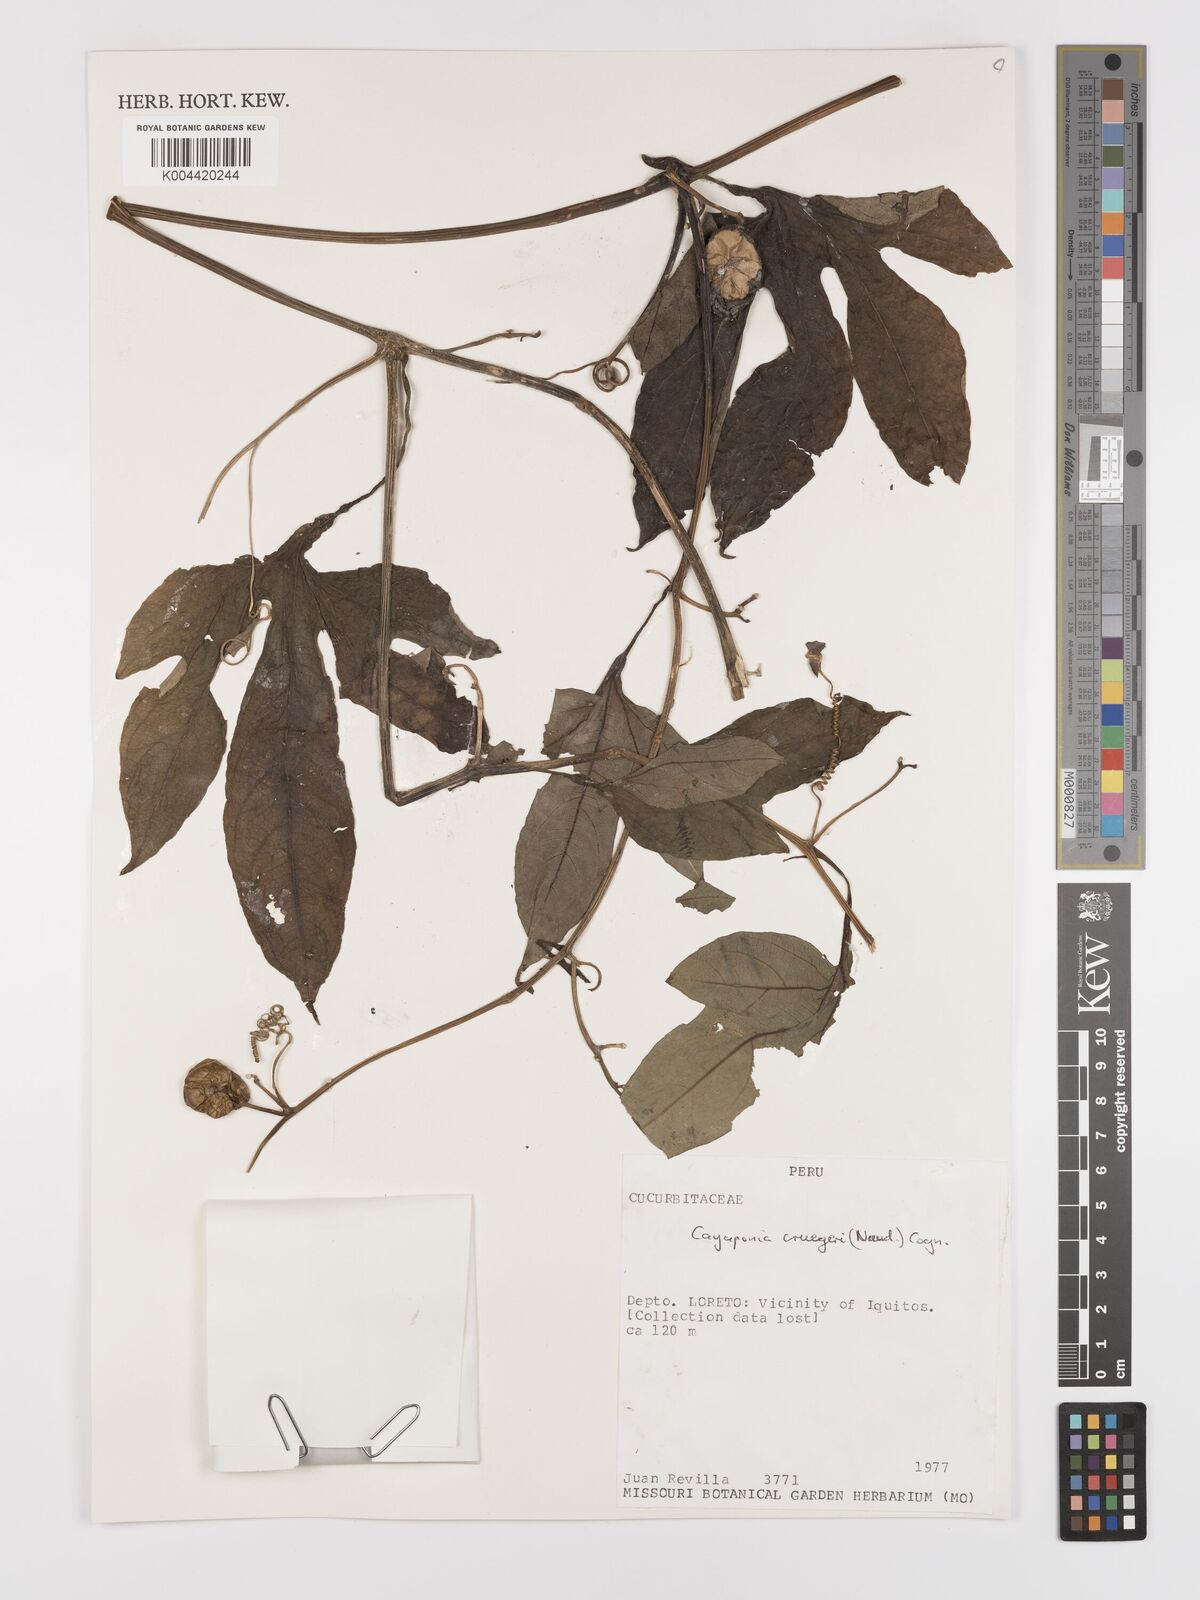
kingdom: Plantae
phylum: Tracheophyta
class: Magnoliopsida
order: Cucurbitales
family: Cucurbitaceae
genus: Cayaponia
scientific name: Cayaponia cruegeri
